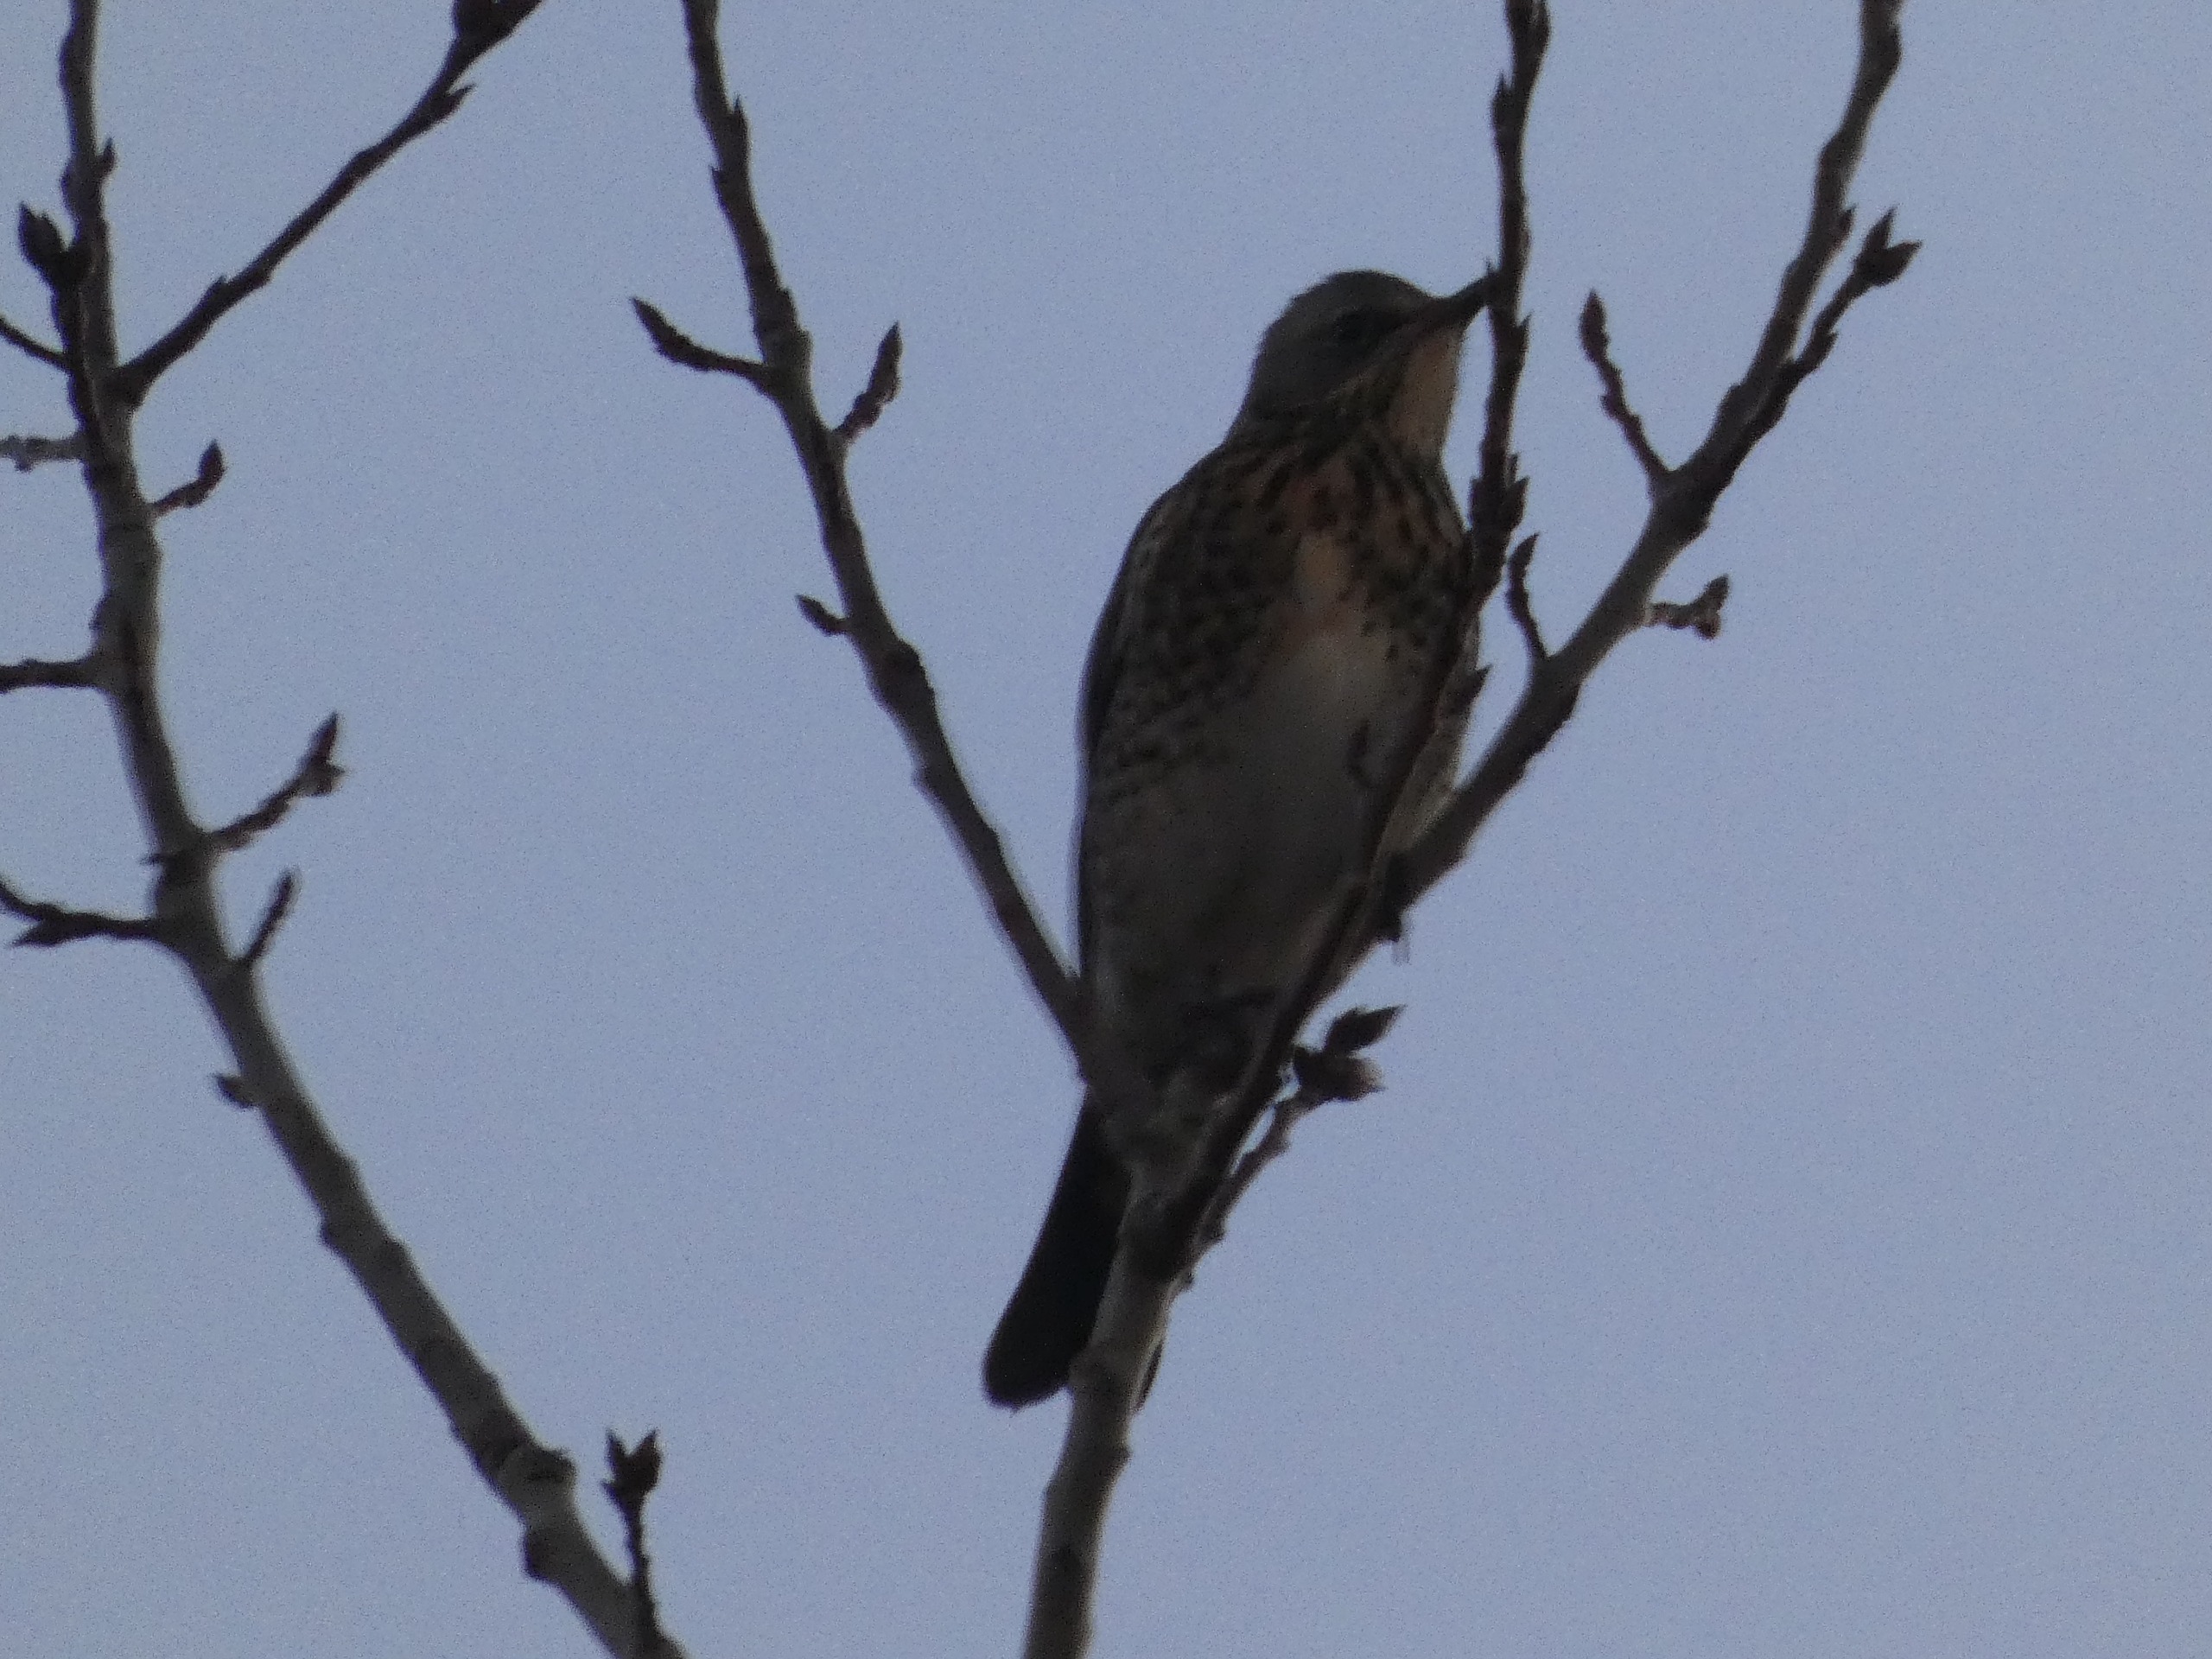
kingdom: Animalia
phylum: Chordata
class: Aves
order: Passeriformes
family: Turdidae
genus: Turdus
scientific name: Turdus pilaris
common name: Sjagger
